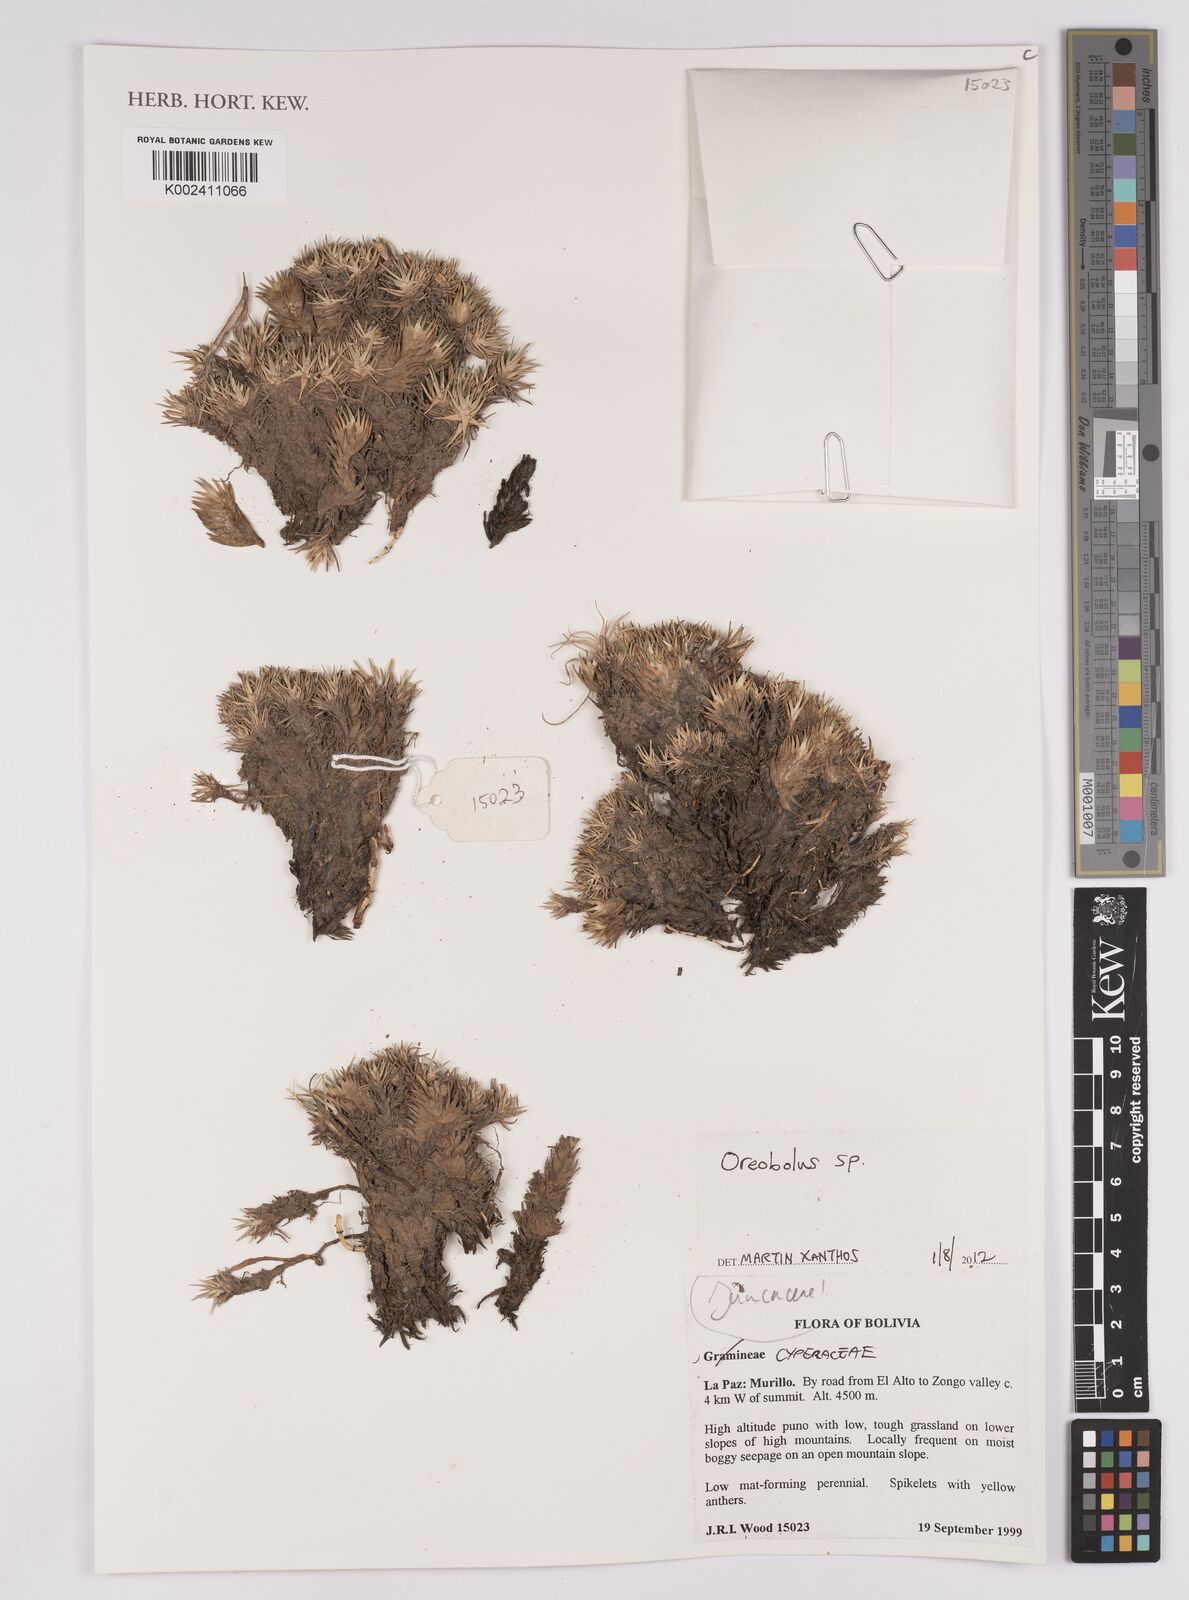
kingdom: Plantae
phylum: Tracheophyta
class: Liliopsida
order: Poales
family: Cyperaceae
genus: Oreobolus
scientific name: Oreobolus
